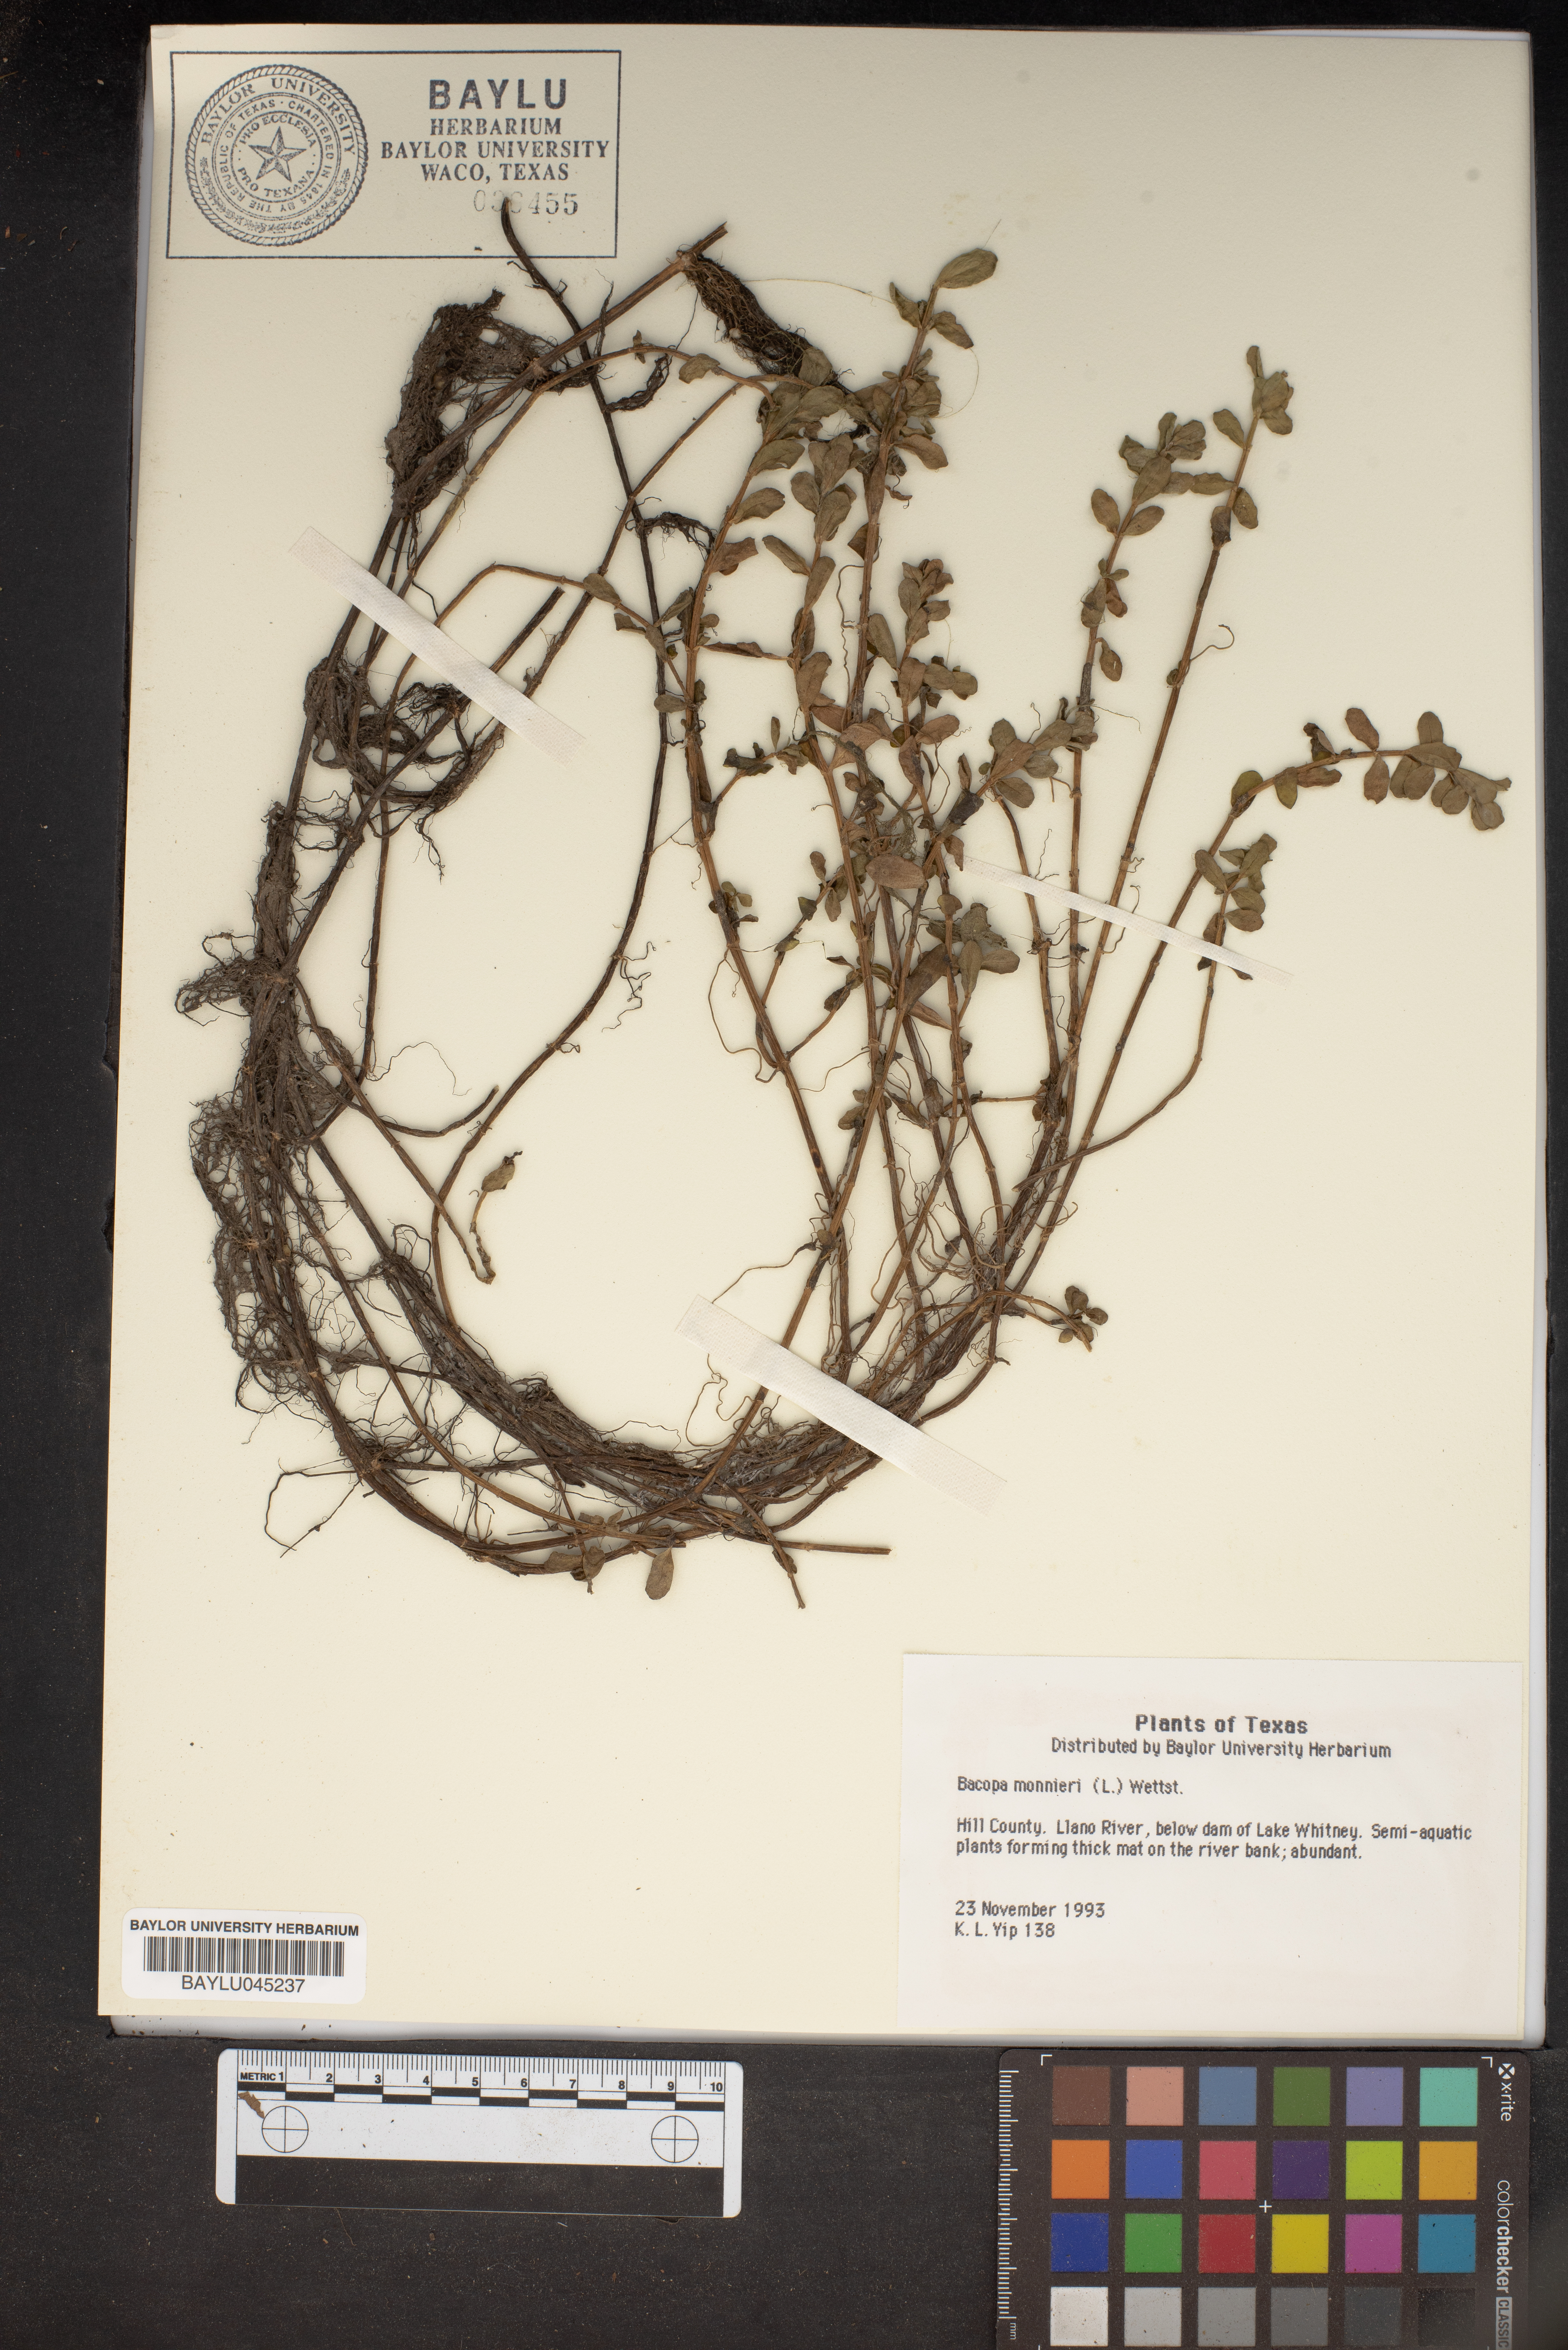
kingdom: Plantae
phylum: Tracheophyta
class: Magnoliopsida
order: Lamiales
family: Plantaginaceae
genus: Bacopa
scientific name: Bacopa monnieri
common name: Indian-pennywort
